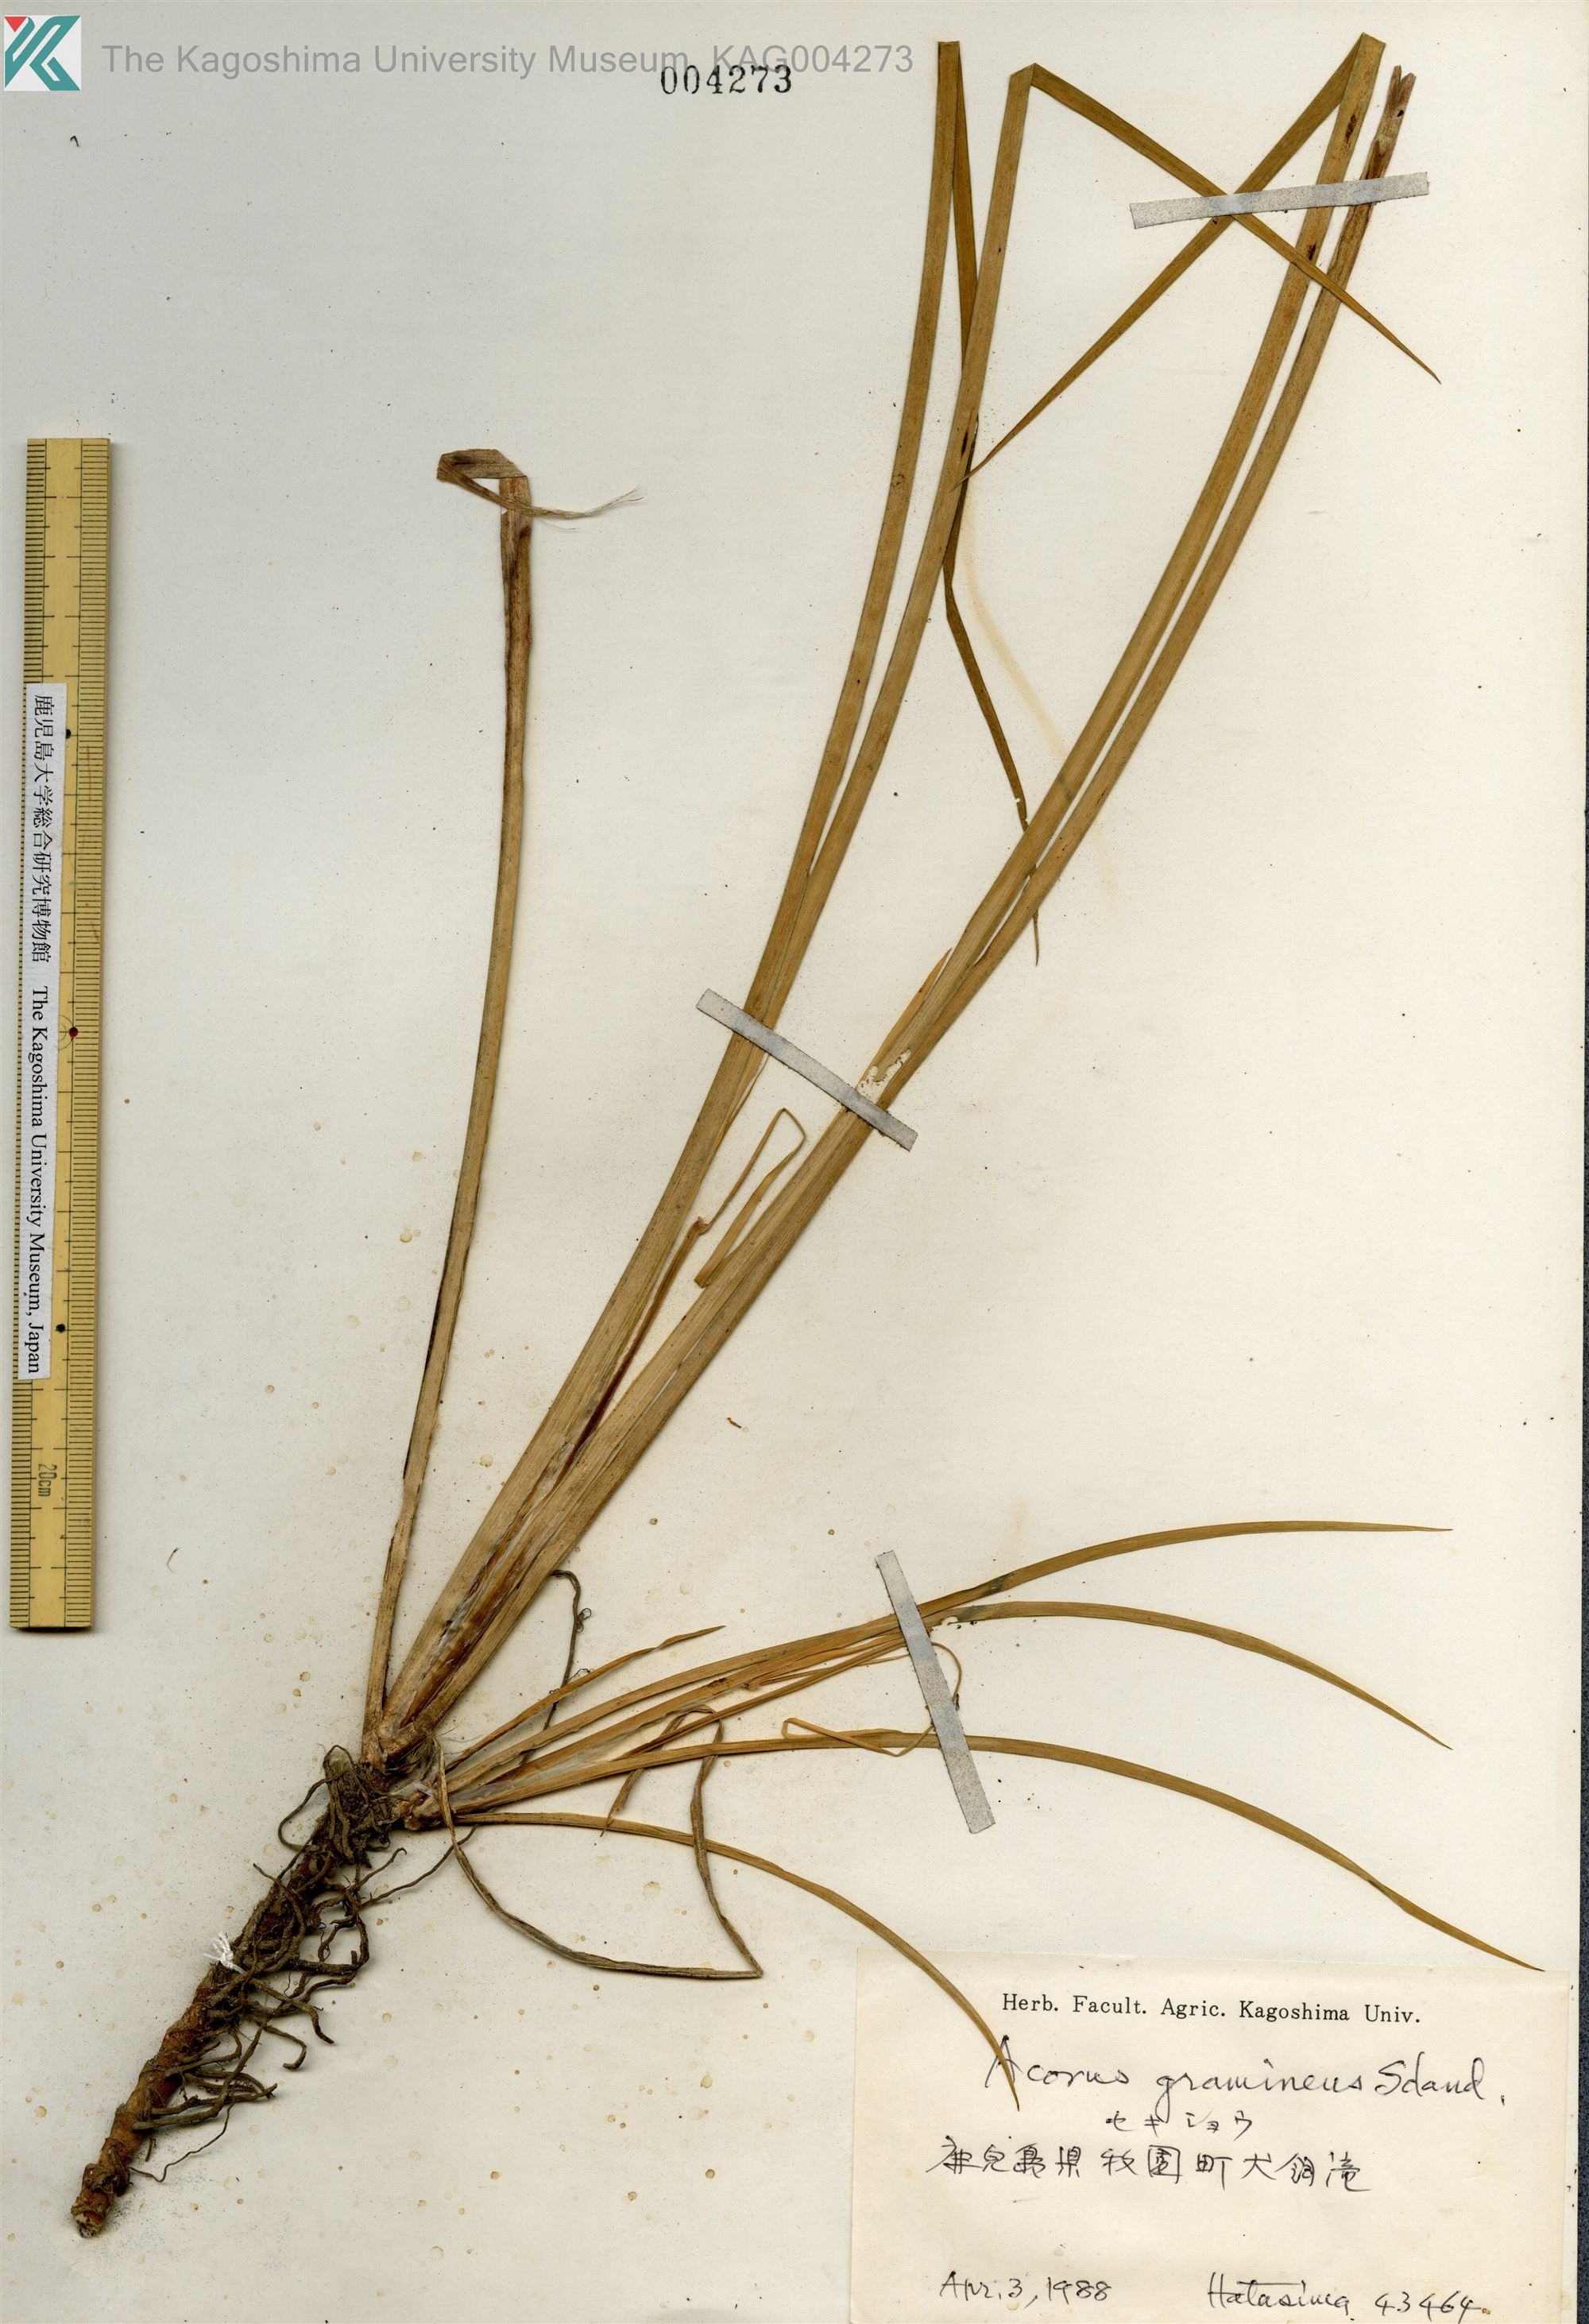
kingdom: Plantae
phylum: Tracheophyta
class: Liliopsida
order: Acorales
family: Acoraceae
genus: Acorus
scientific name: Acorus gramineus
